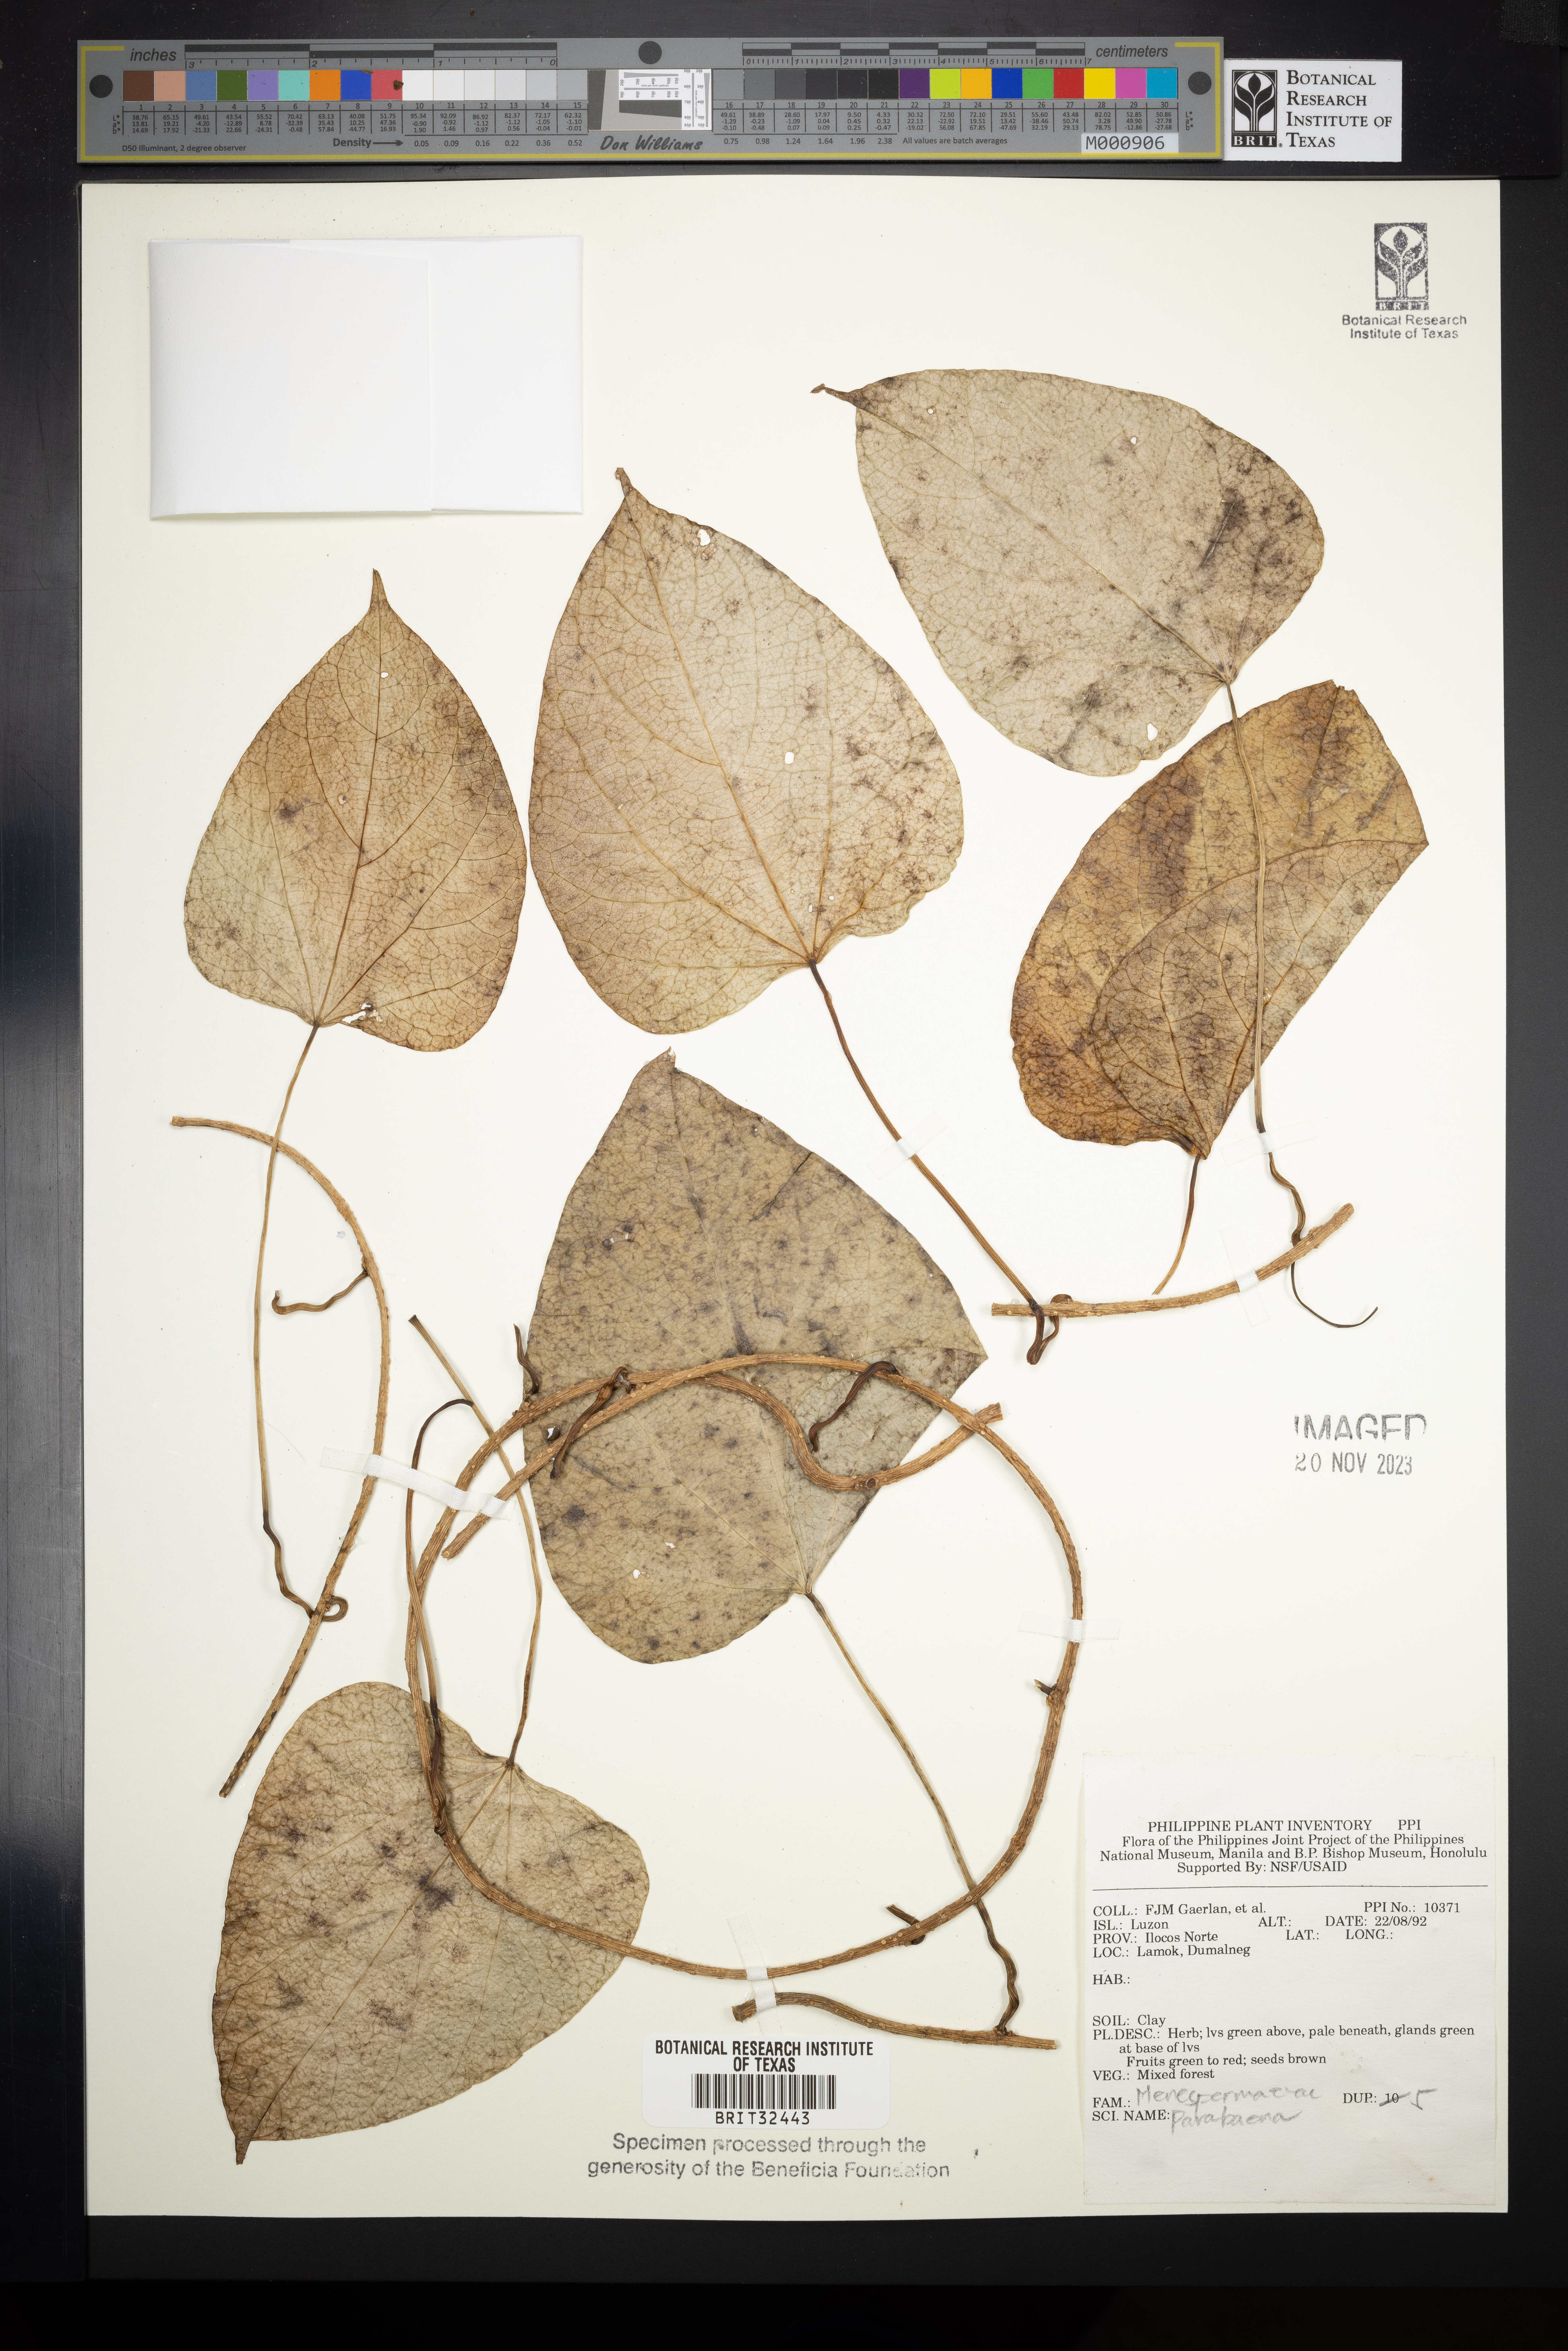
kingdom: Plantae
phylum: Tracheophyta
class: Magnoliopsida
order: Ranunculales
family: Menispermaceae
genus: Parabaena
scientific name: Parabaena
